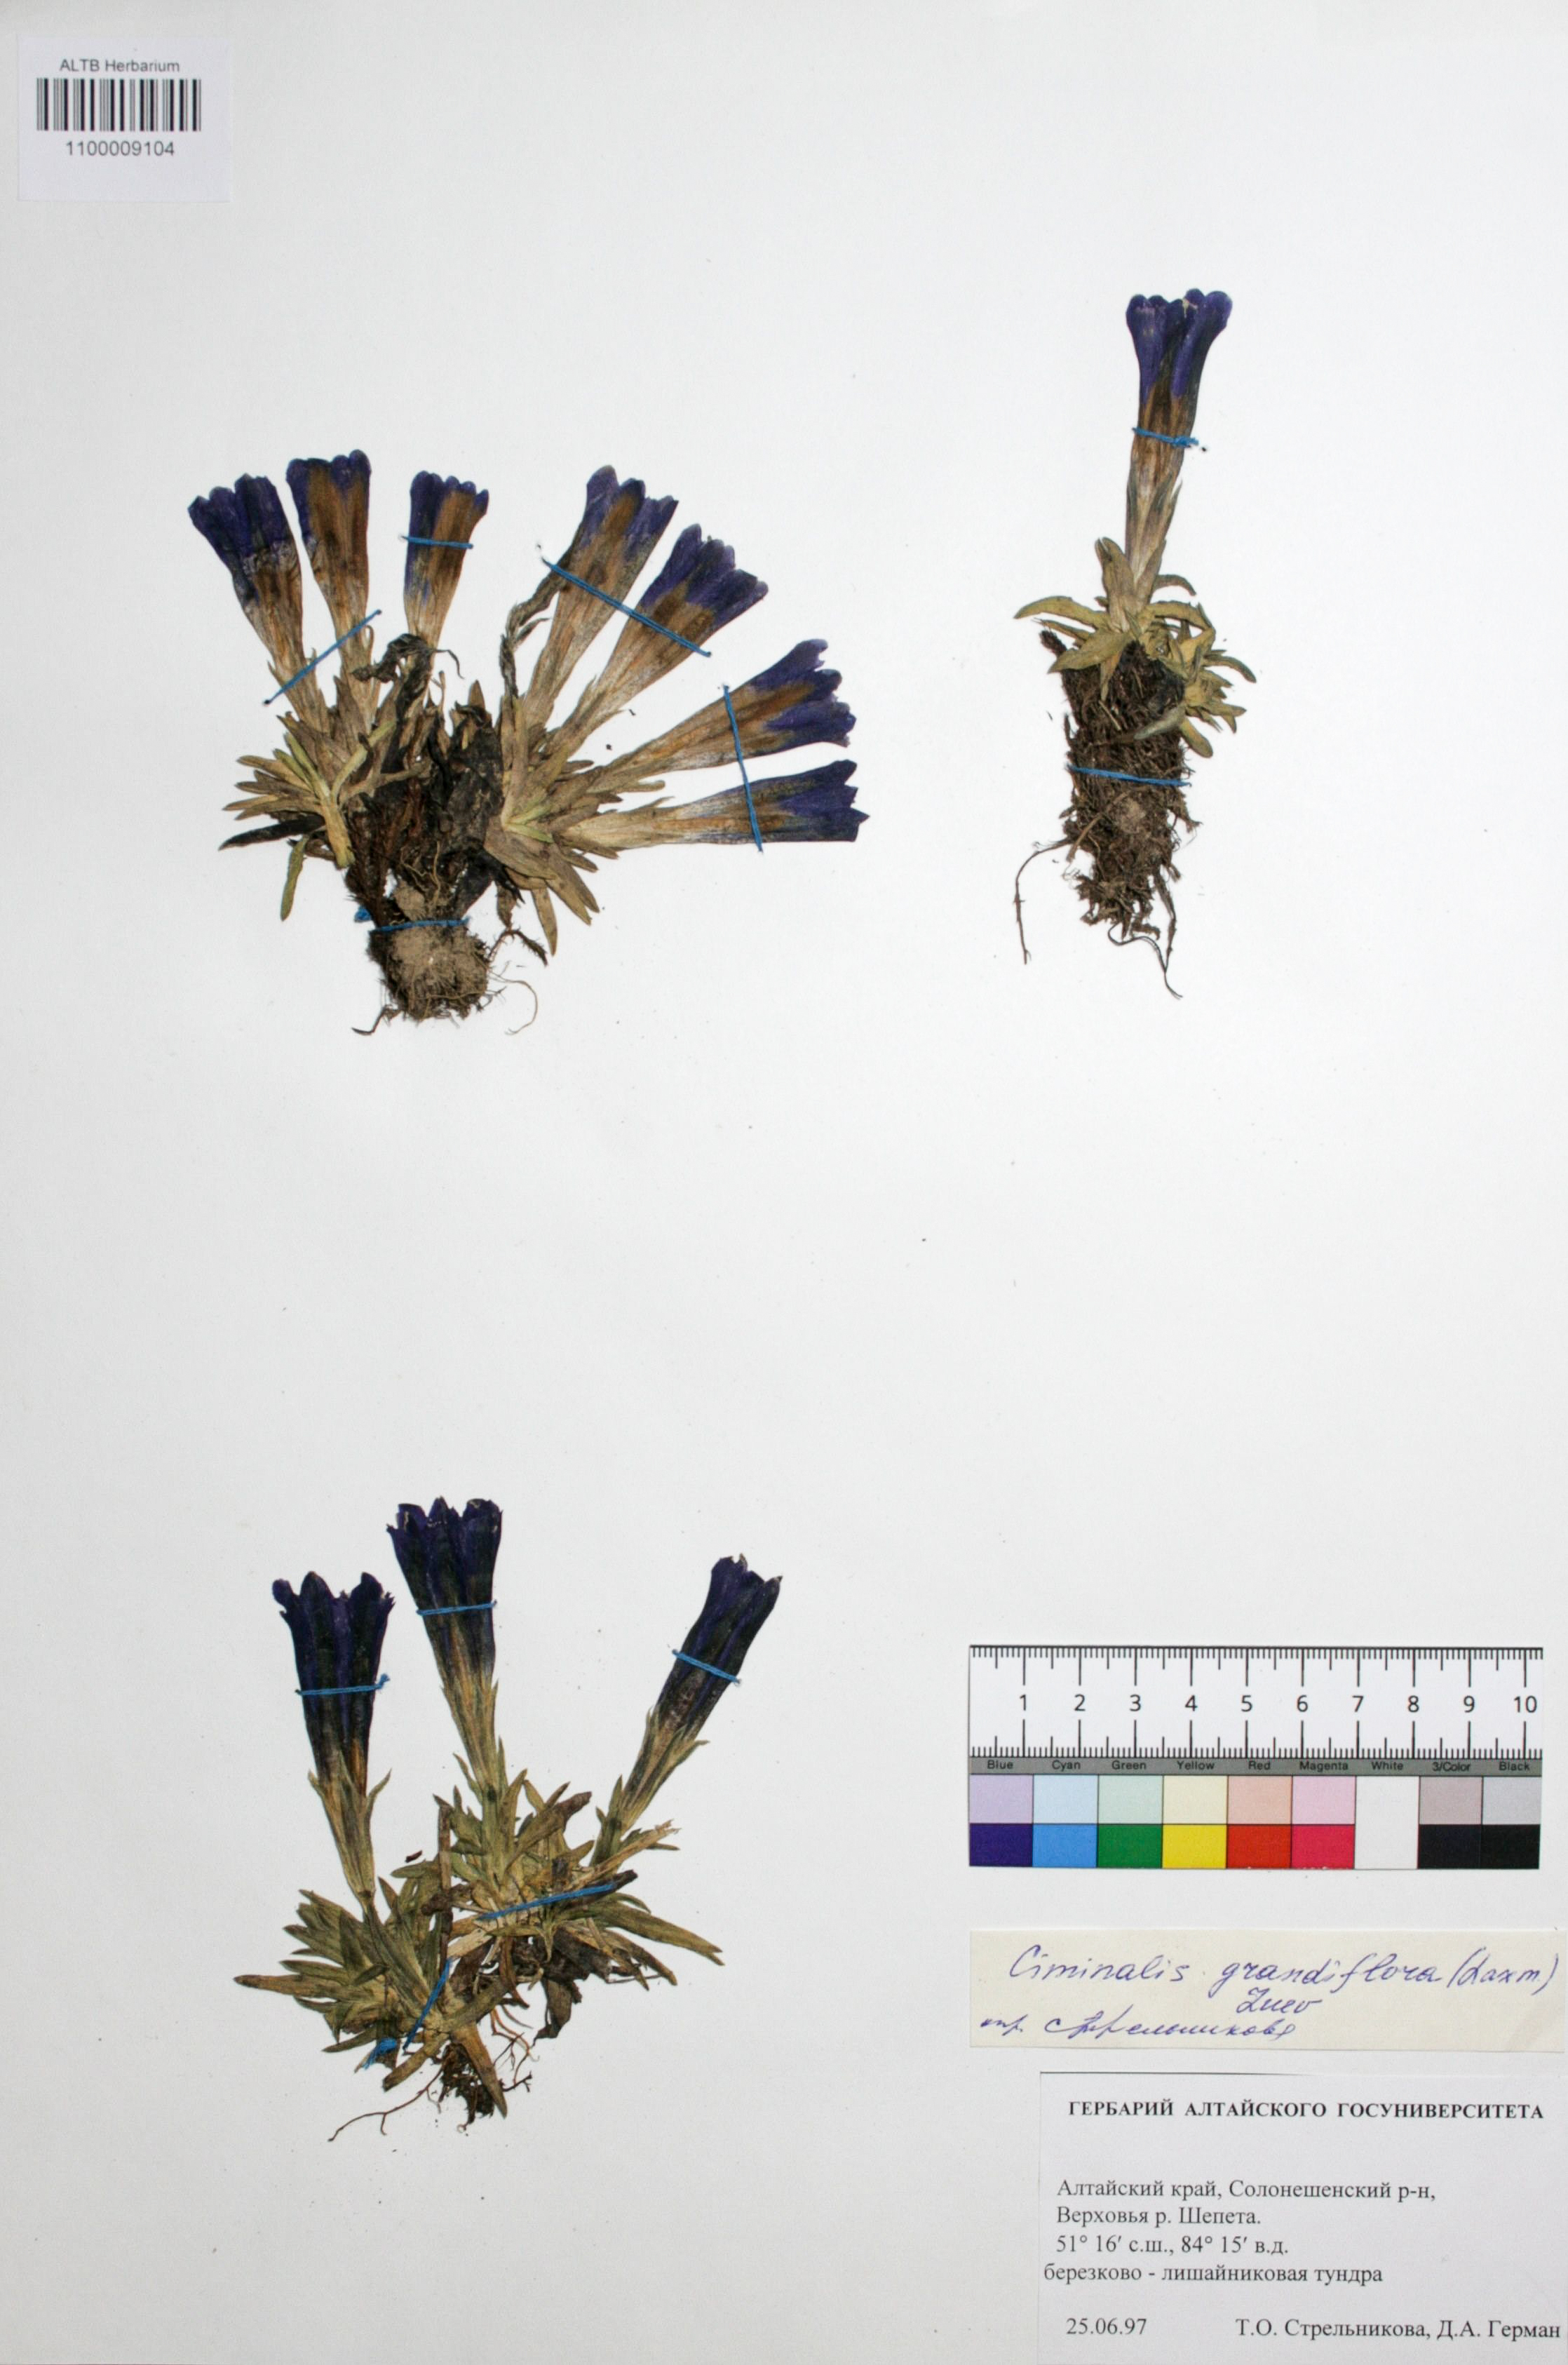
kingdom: Plantae
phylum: Tracheophyta
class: Magnoliopsida
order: Gentianales
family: Gentianaceae
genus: Gentiana
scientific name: Gentiana grandiflora
